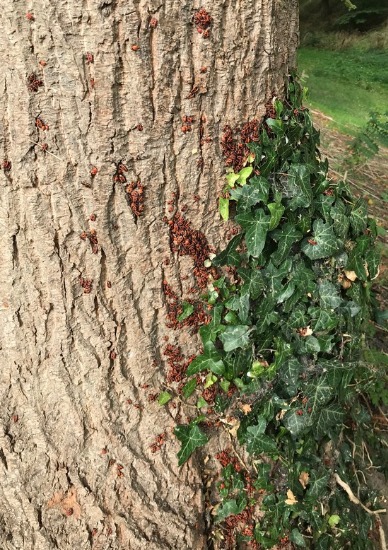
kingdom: Animalia
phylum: Arthropoda
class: Insecta
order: Hemiptera
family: Pyrrhocoridae
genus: Pyrrhocoris
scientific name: Pyrrhocoris apterus
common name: Ildtæge
